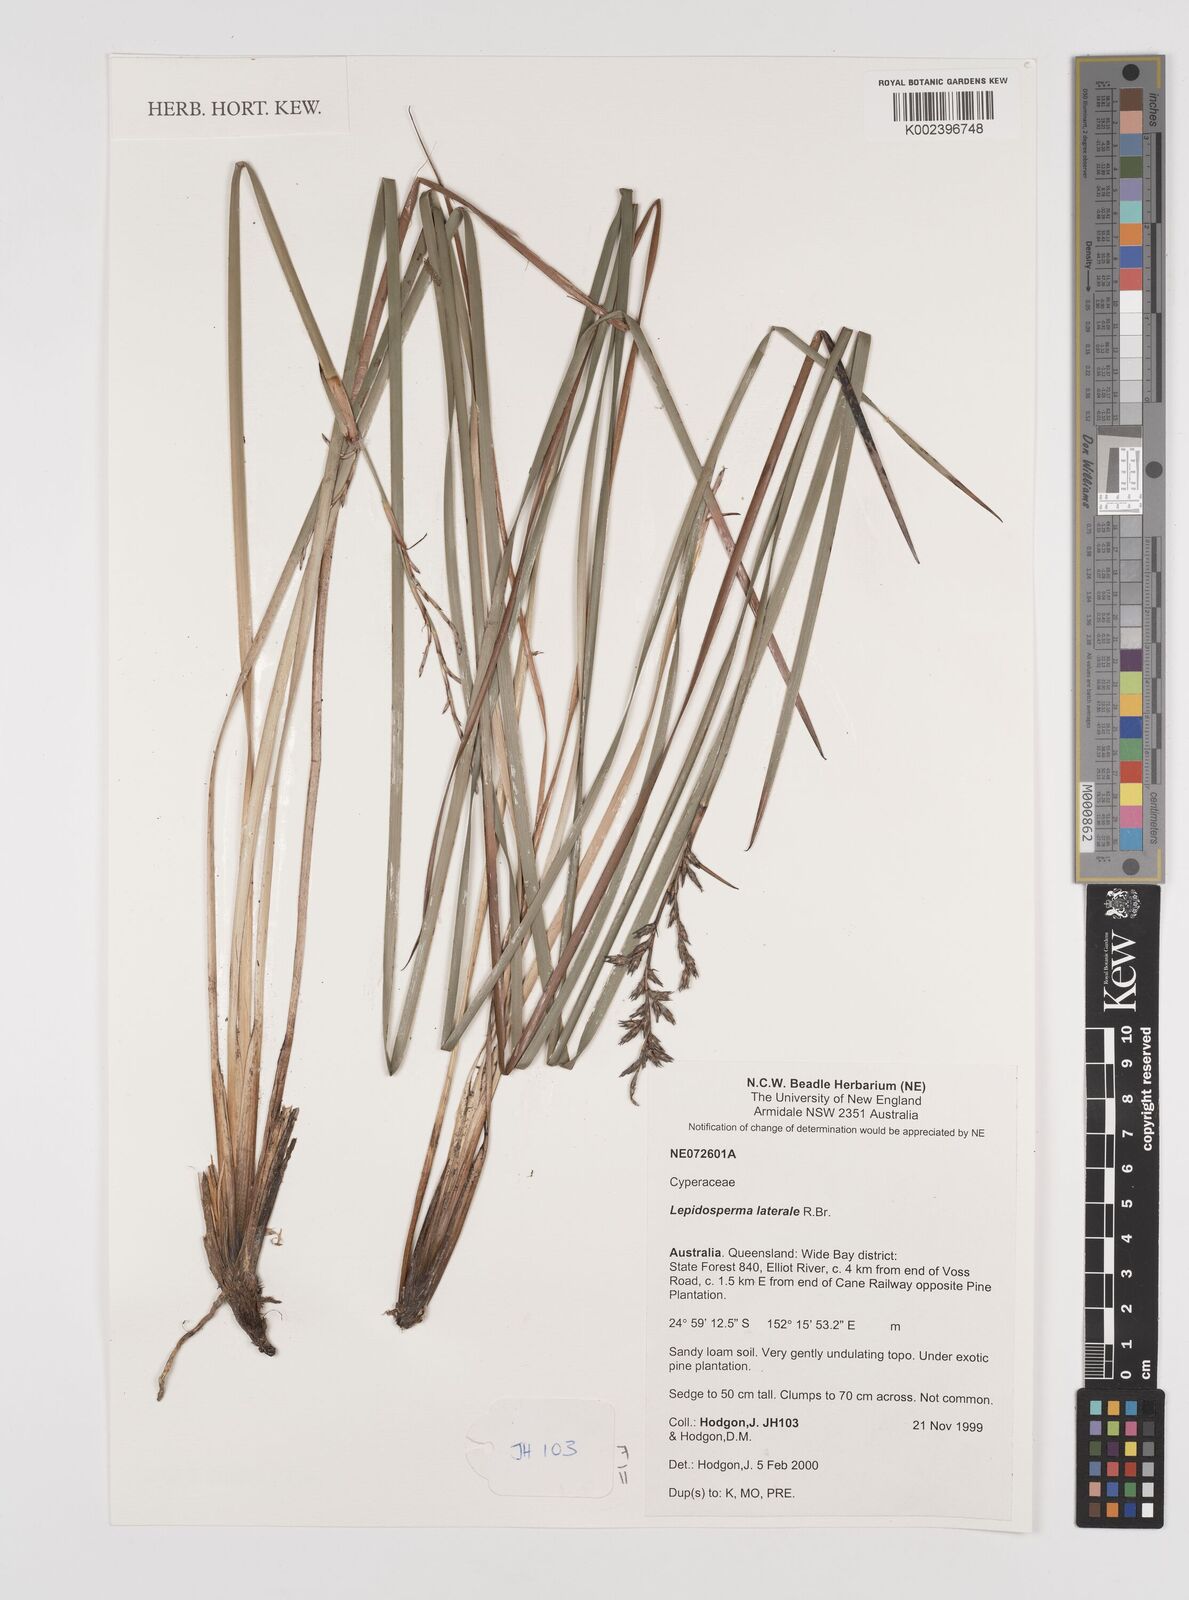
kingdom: Plantae
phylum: Tracheophyta
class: Liliopsida
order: Poales
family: Cyperaceae
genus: Lepidosperma
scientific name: Lepidosperma laterale
